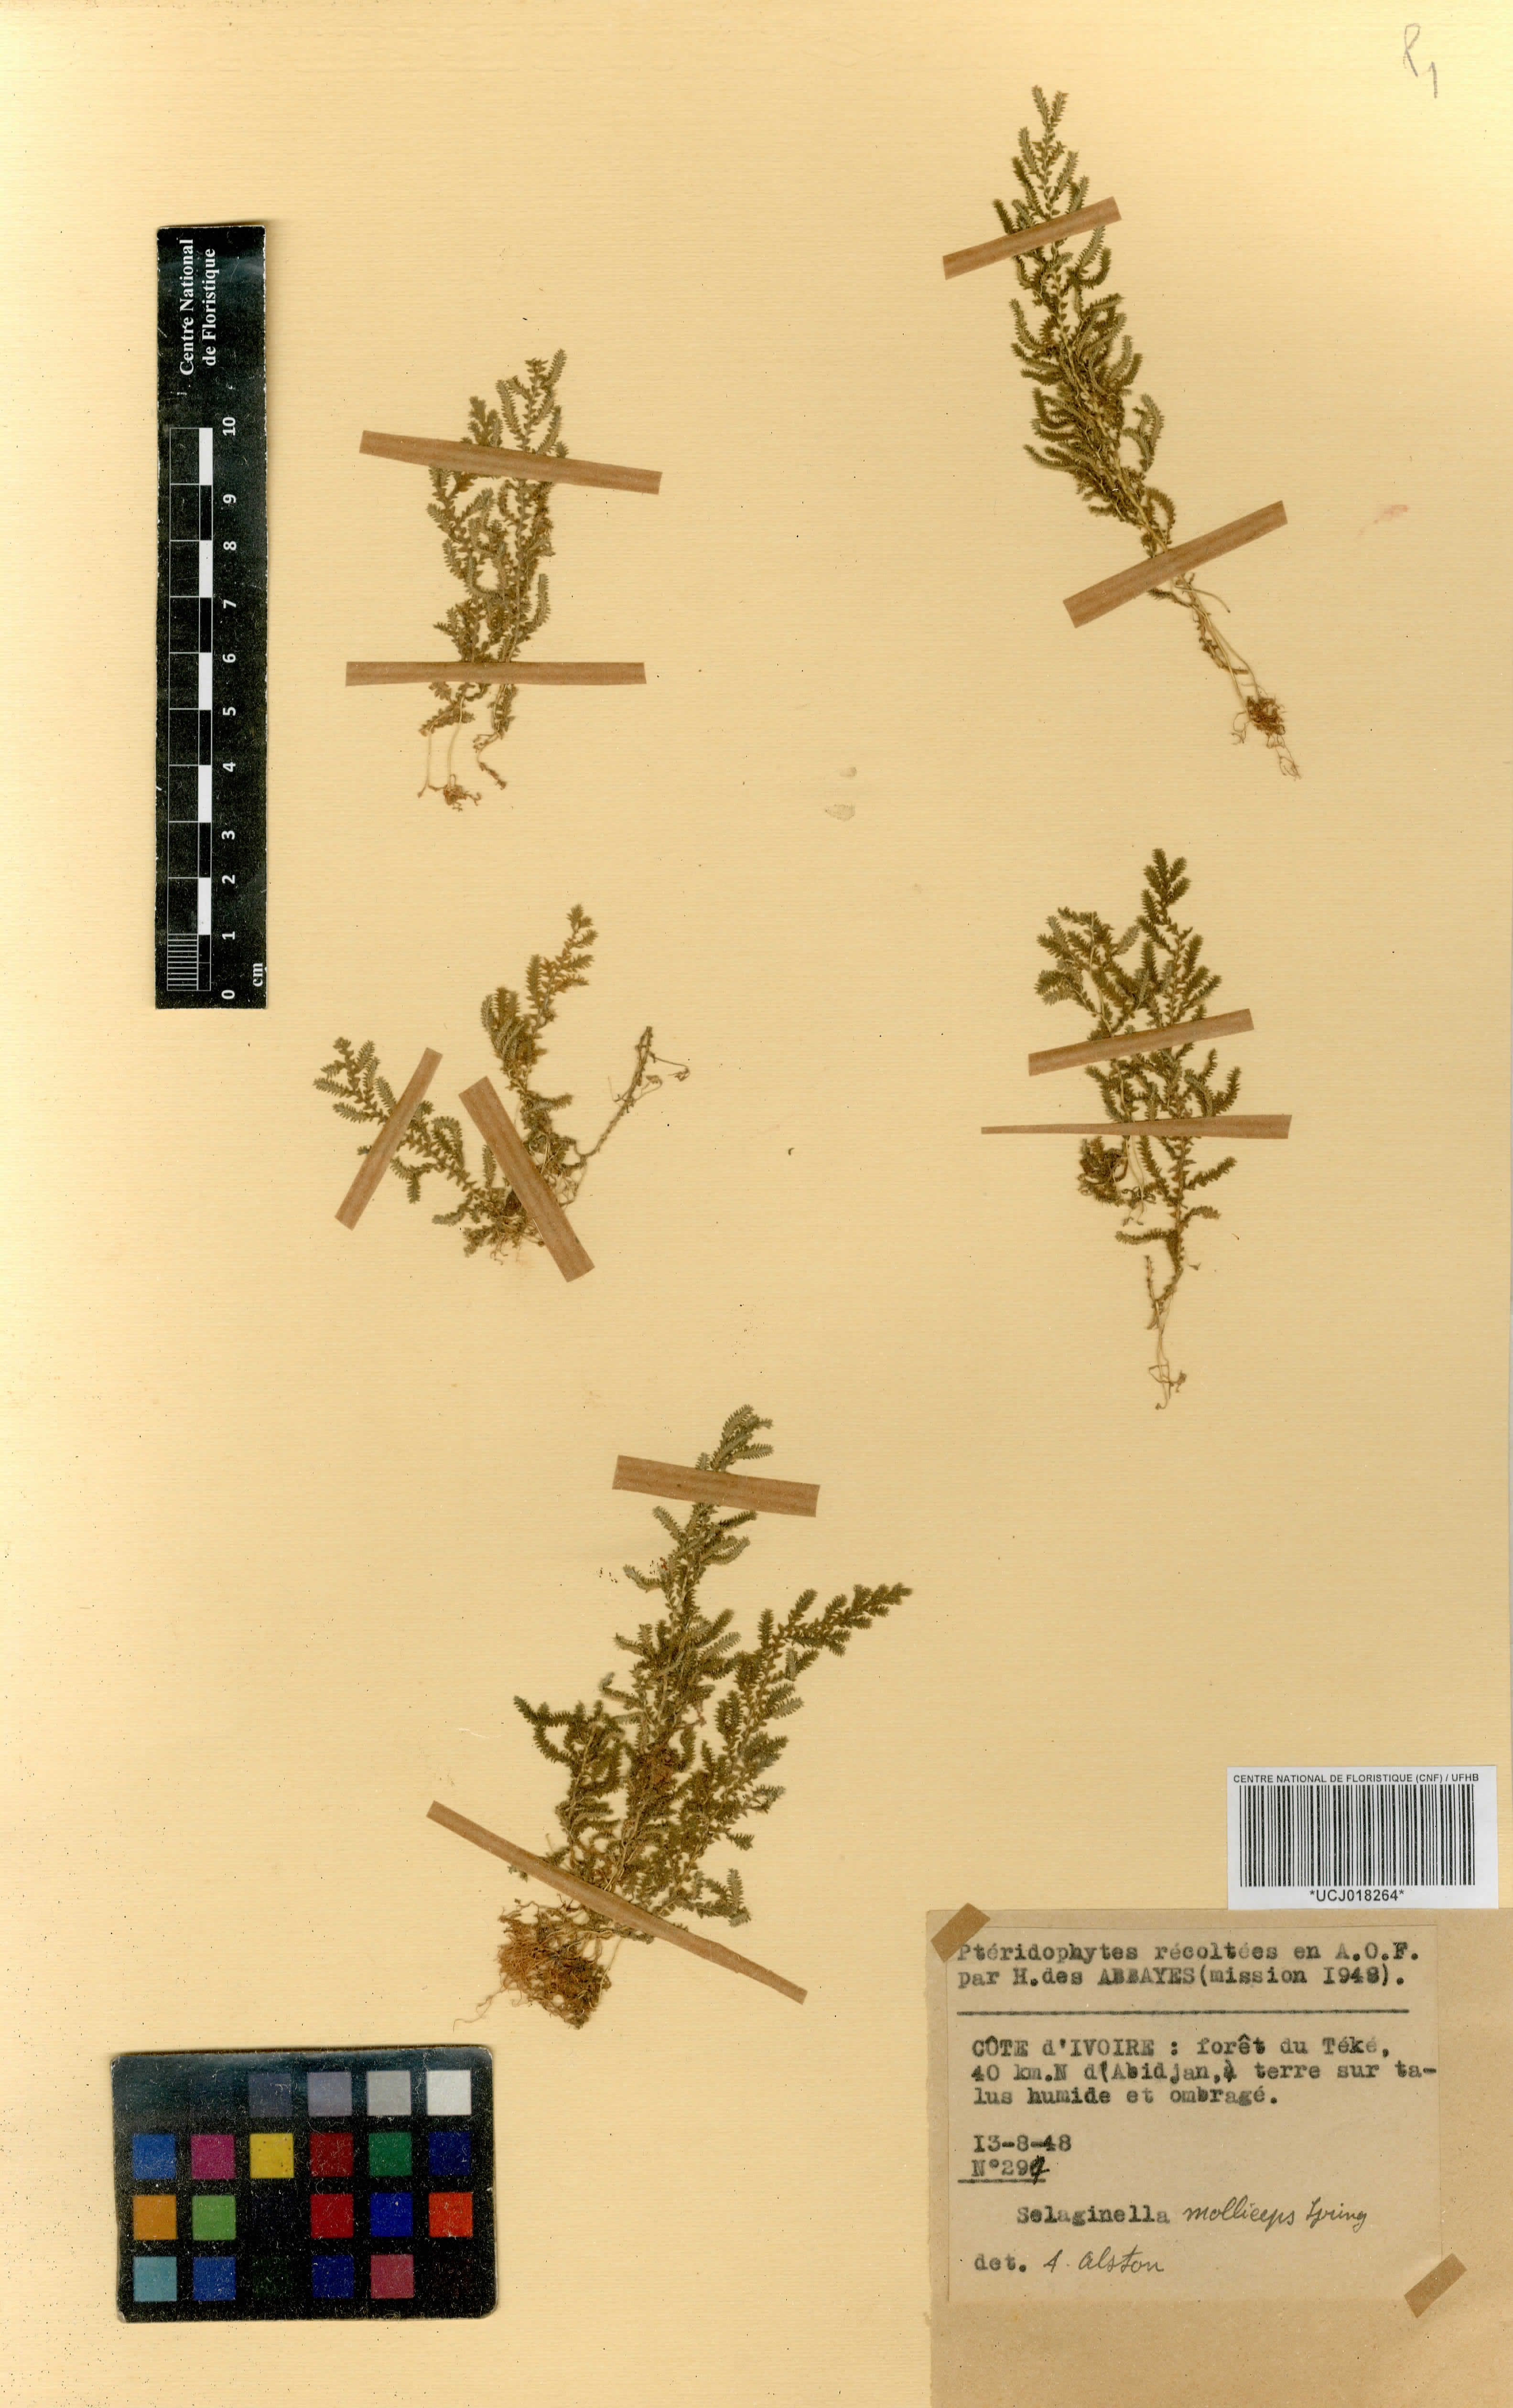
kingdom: Plantae
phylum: Tracheophyta
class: Lycopodiopsida
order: Selaginellales
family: Selaginellaceae
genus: Selaginella
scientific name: Selaginella molliceps
